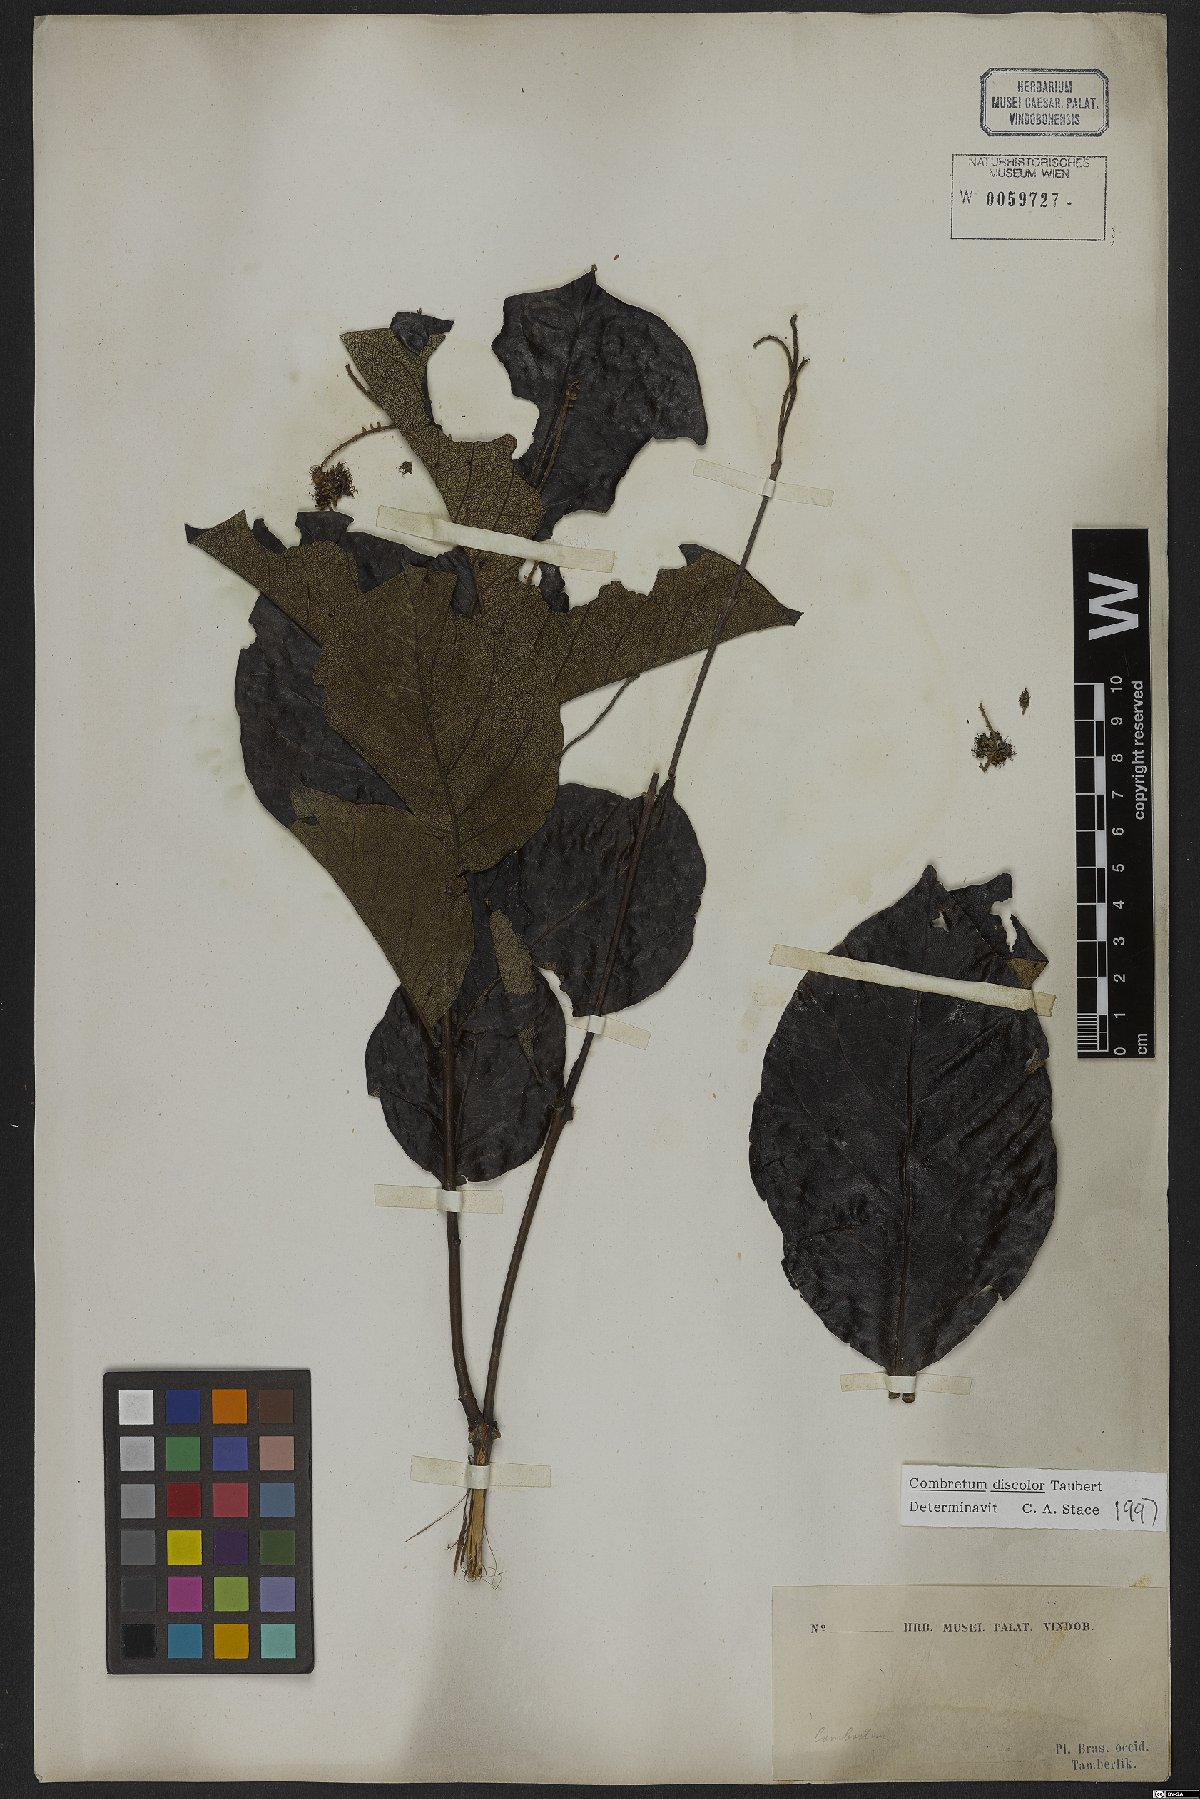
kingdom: Plantae
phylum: Tracheophyta
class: Magnoliopsida
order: Myrtales
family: Combretaceae
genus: Combretum
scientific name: Combretum discolor
